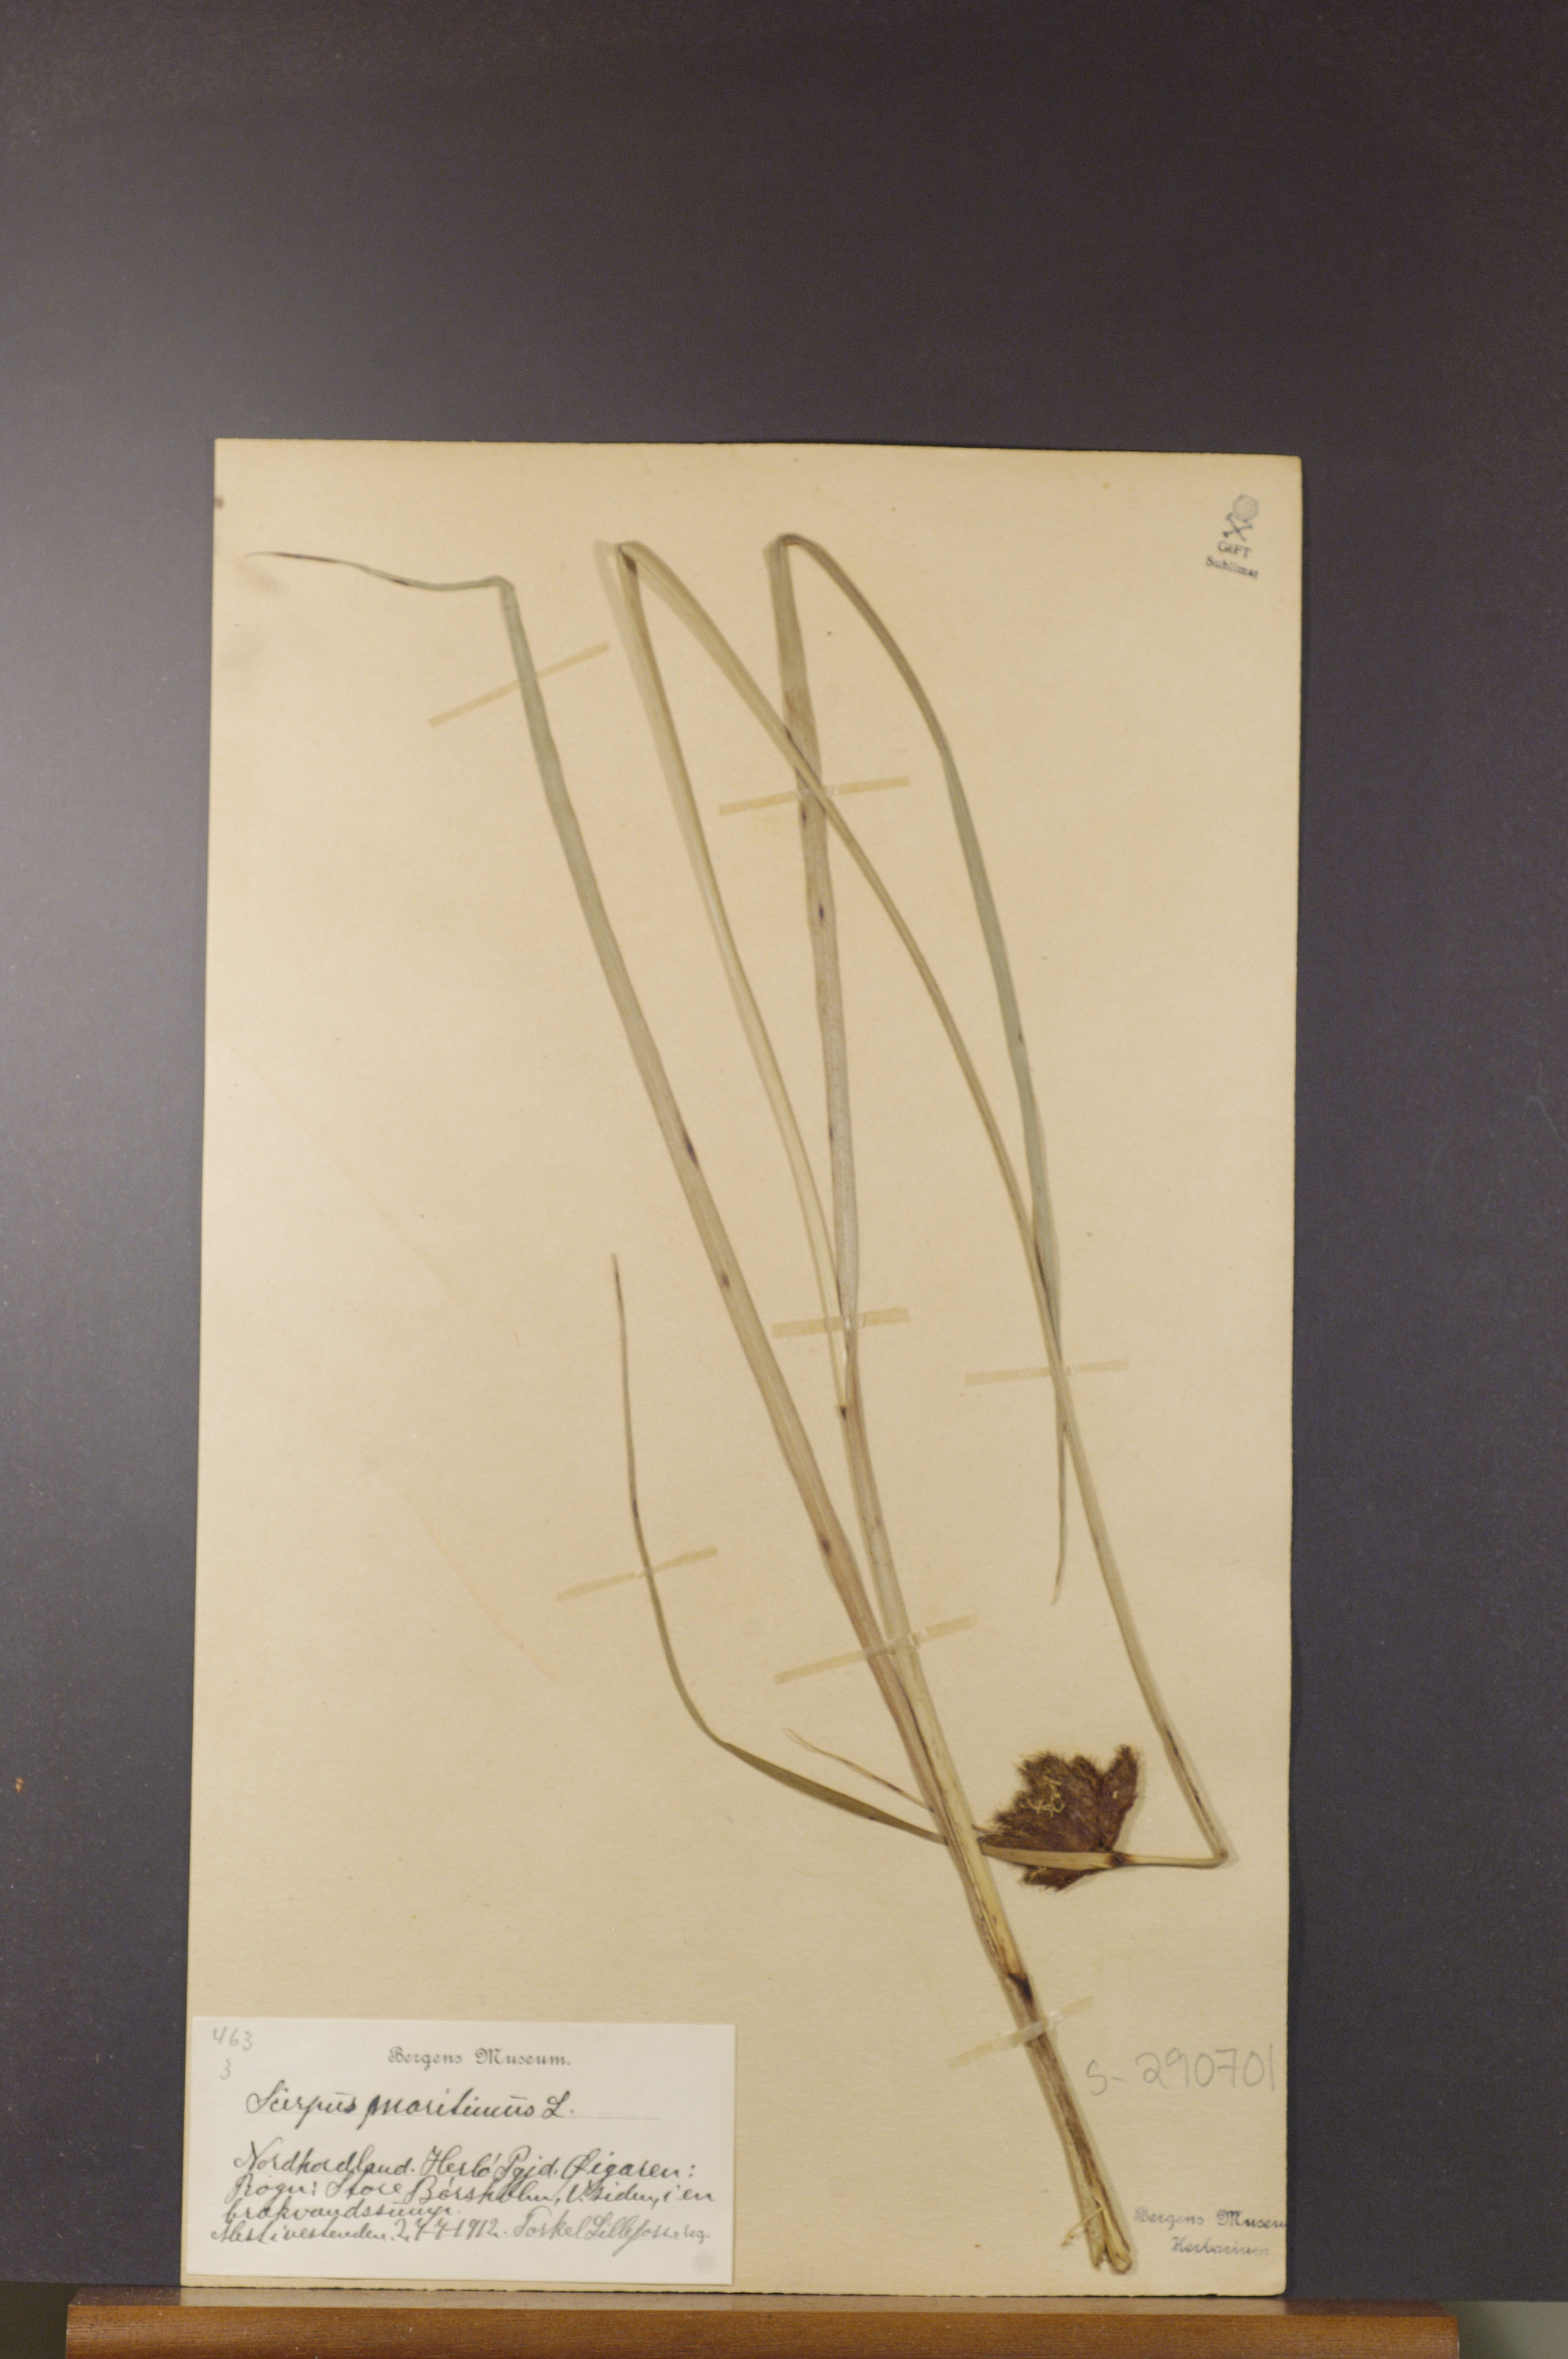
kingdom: Plantae
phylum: Tracheophyta
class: Liliopsida
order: Poales
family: Cyperaceae
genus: Bolboschoenus
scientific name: Bolboschoenus maritimus
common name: Sea club-rush
